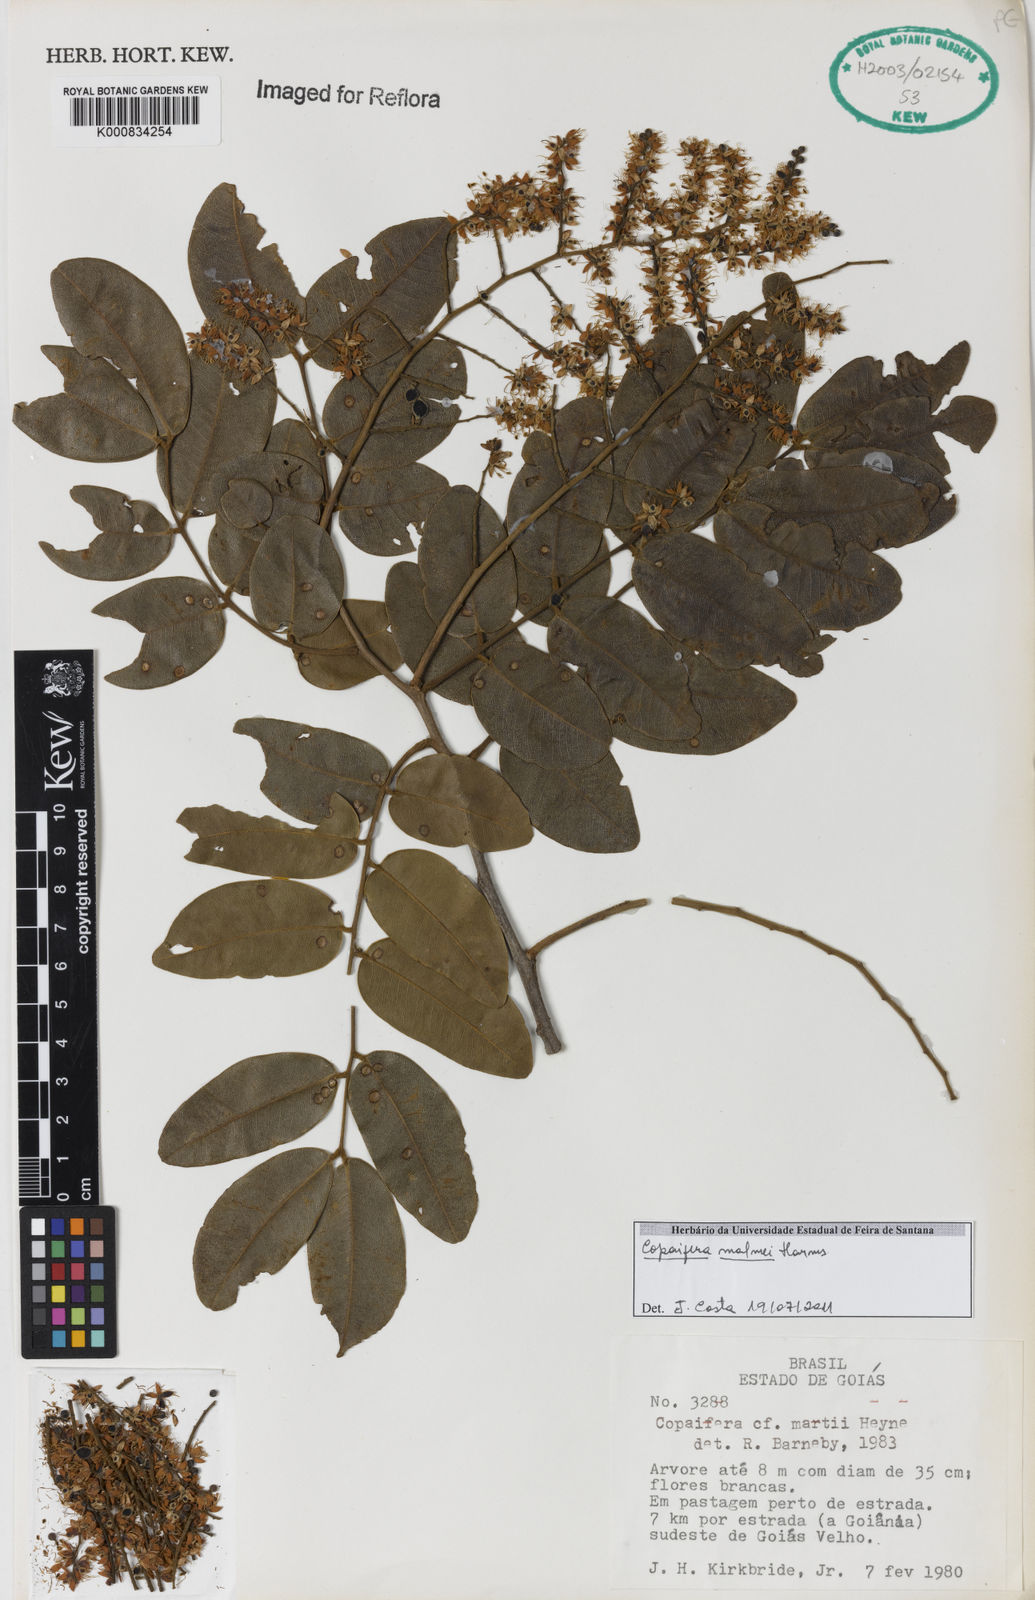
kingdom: Plantae
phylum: Tracheophyta
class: Magnoliopsida
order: Fabales
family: Fabaceae
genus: Copaifera
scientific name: Copaifera malmei
